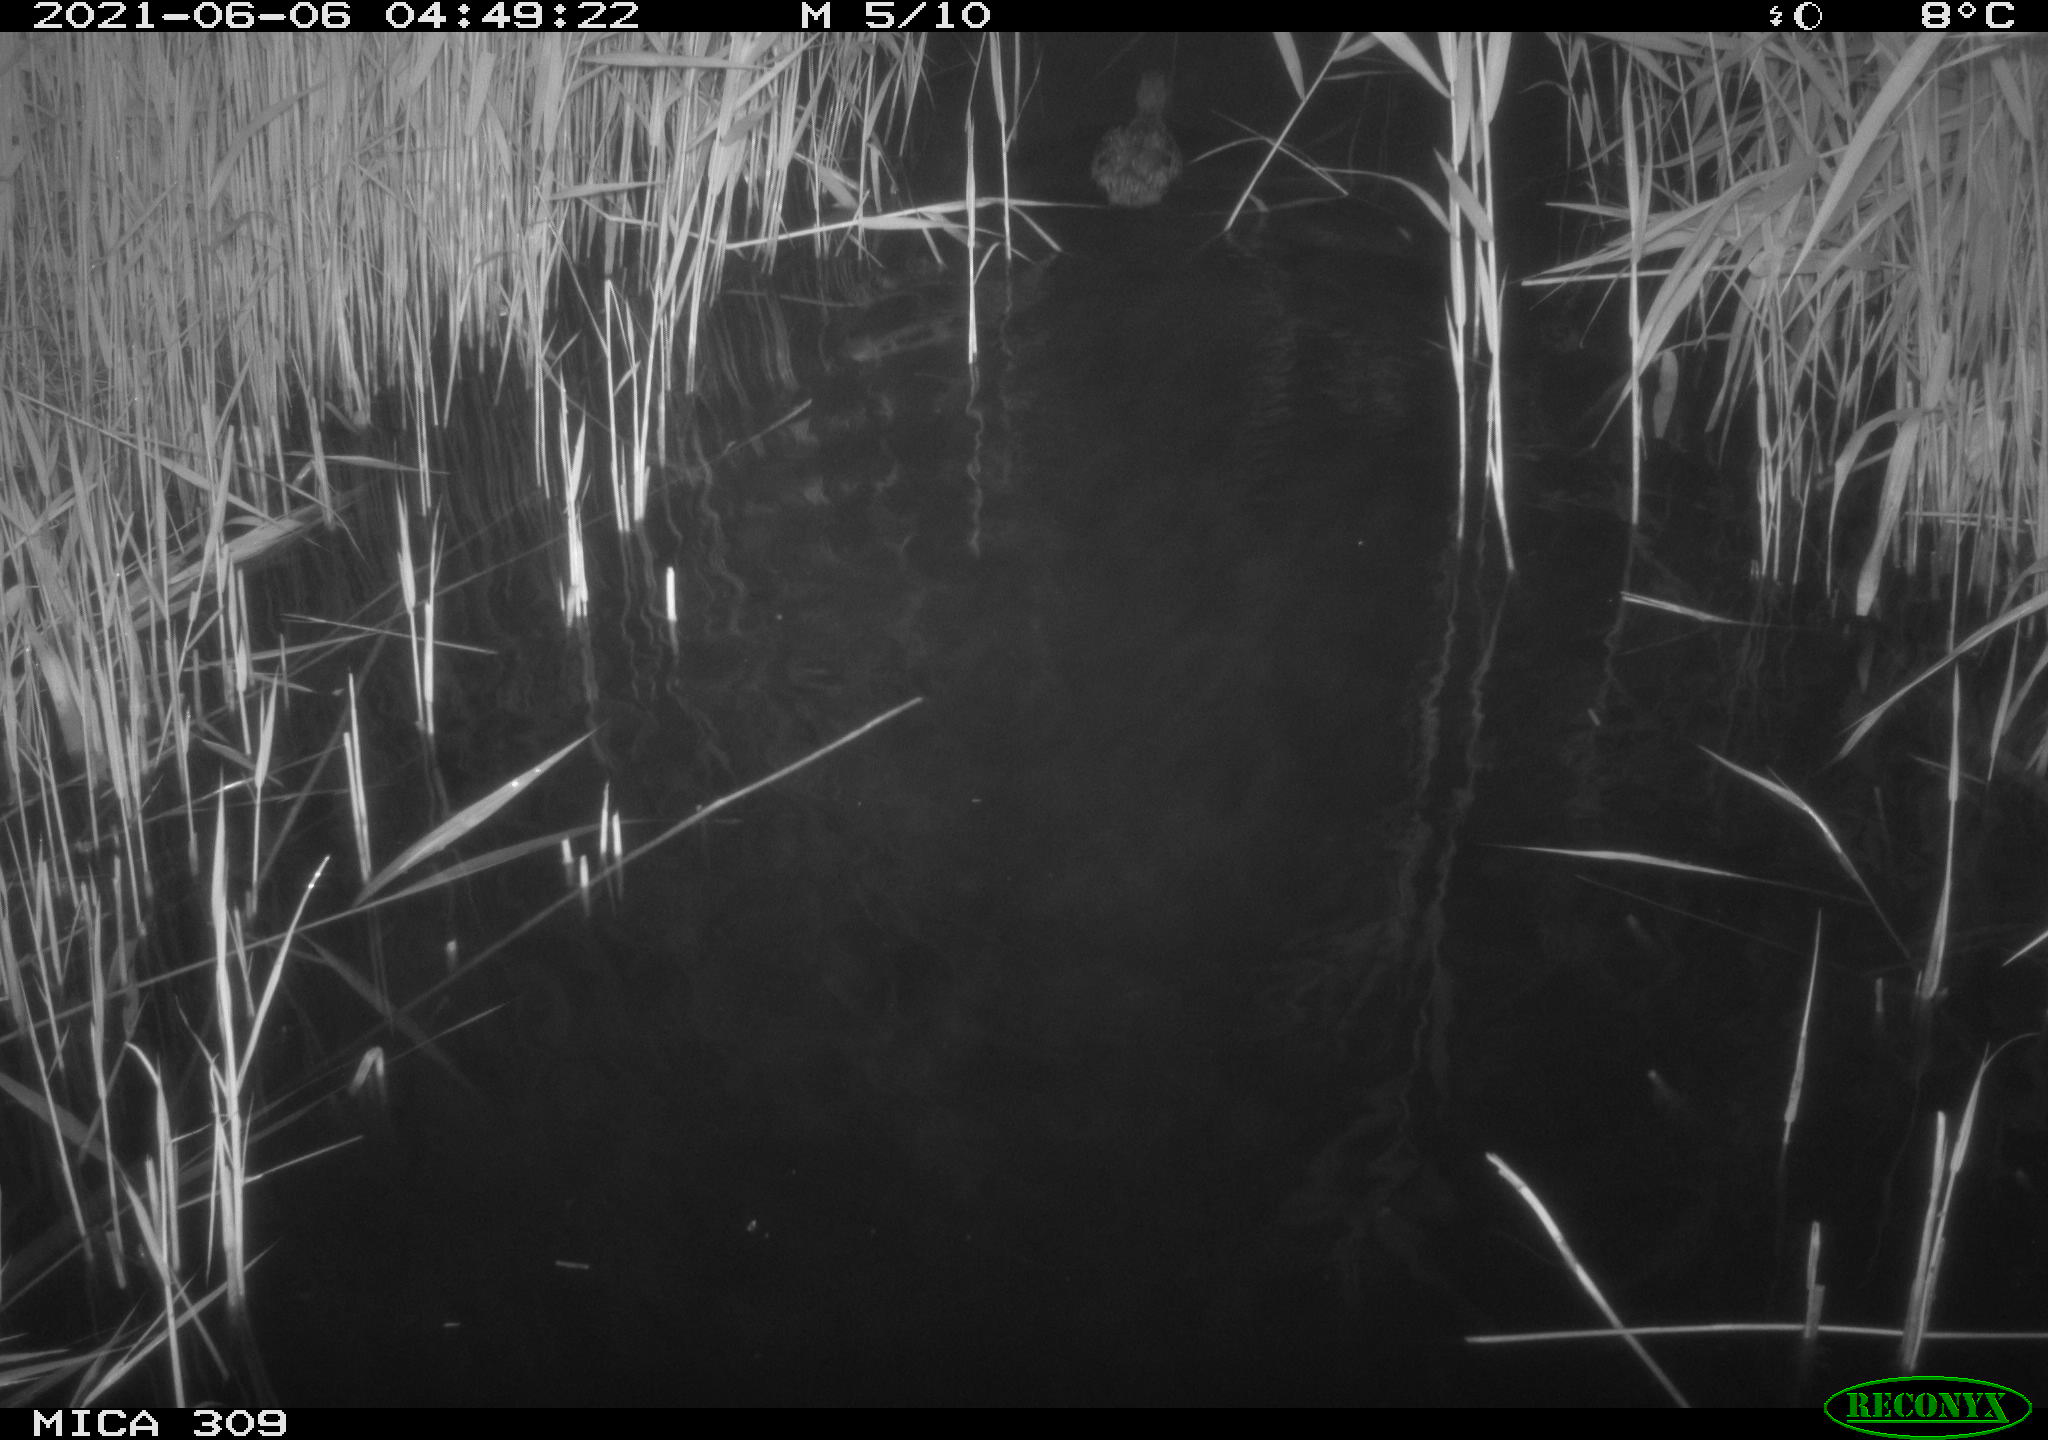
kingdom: Animalia
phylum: Chordata
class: Aves
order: Anseriformes
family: Anatidae
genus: Anas
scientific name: Anas platyrhynchos
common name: Mallard
